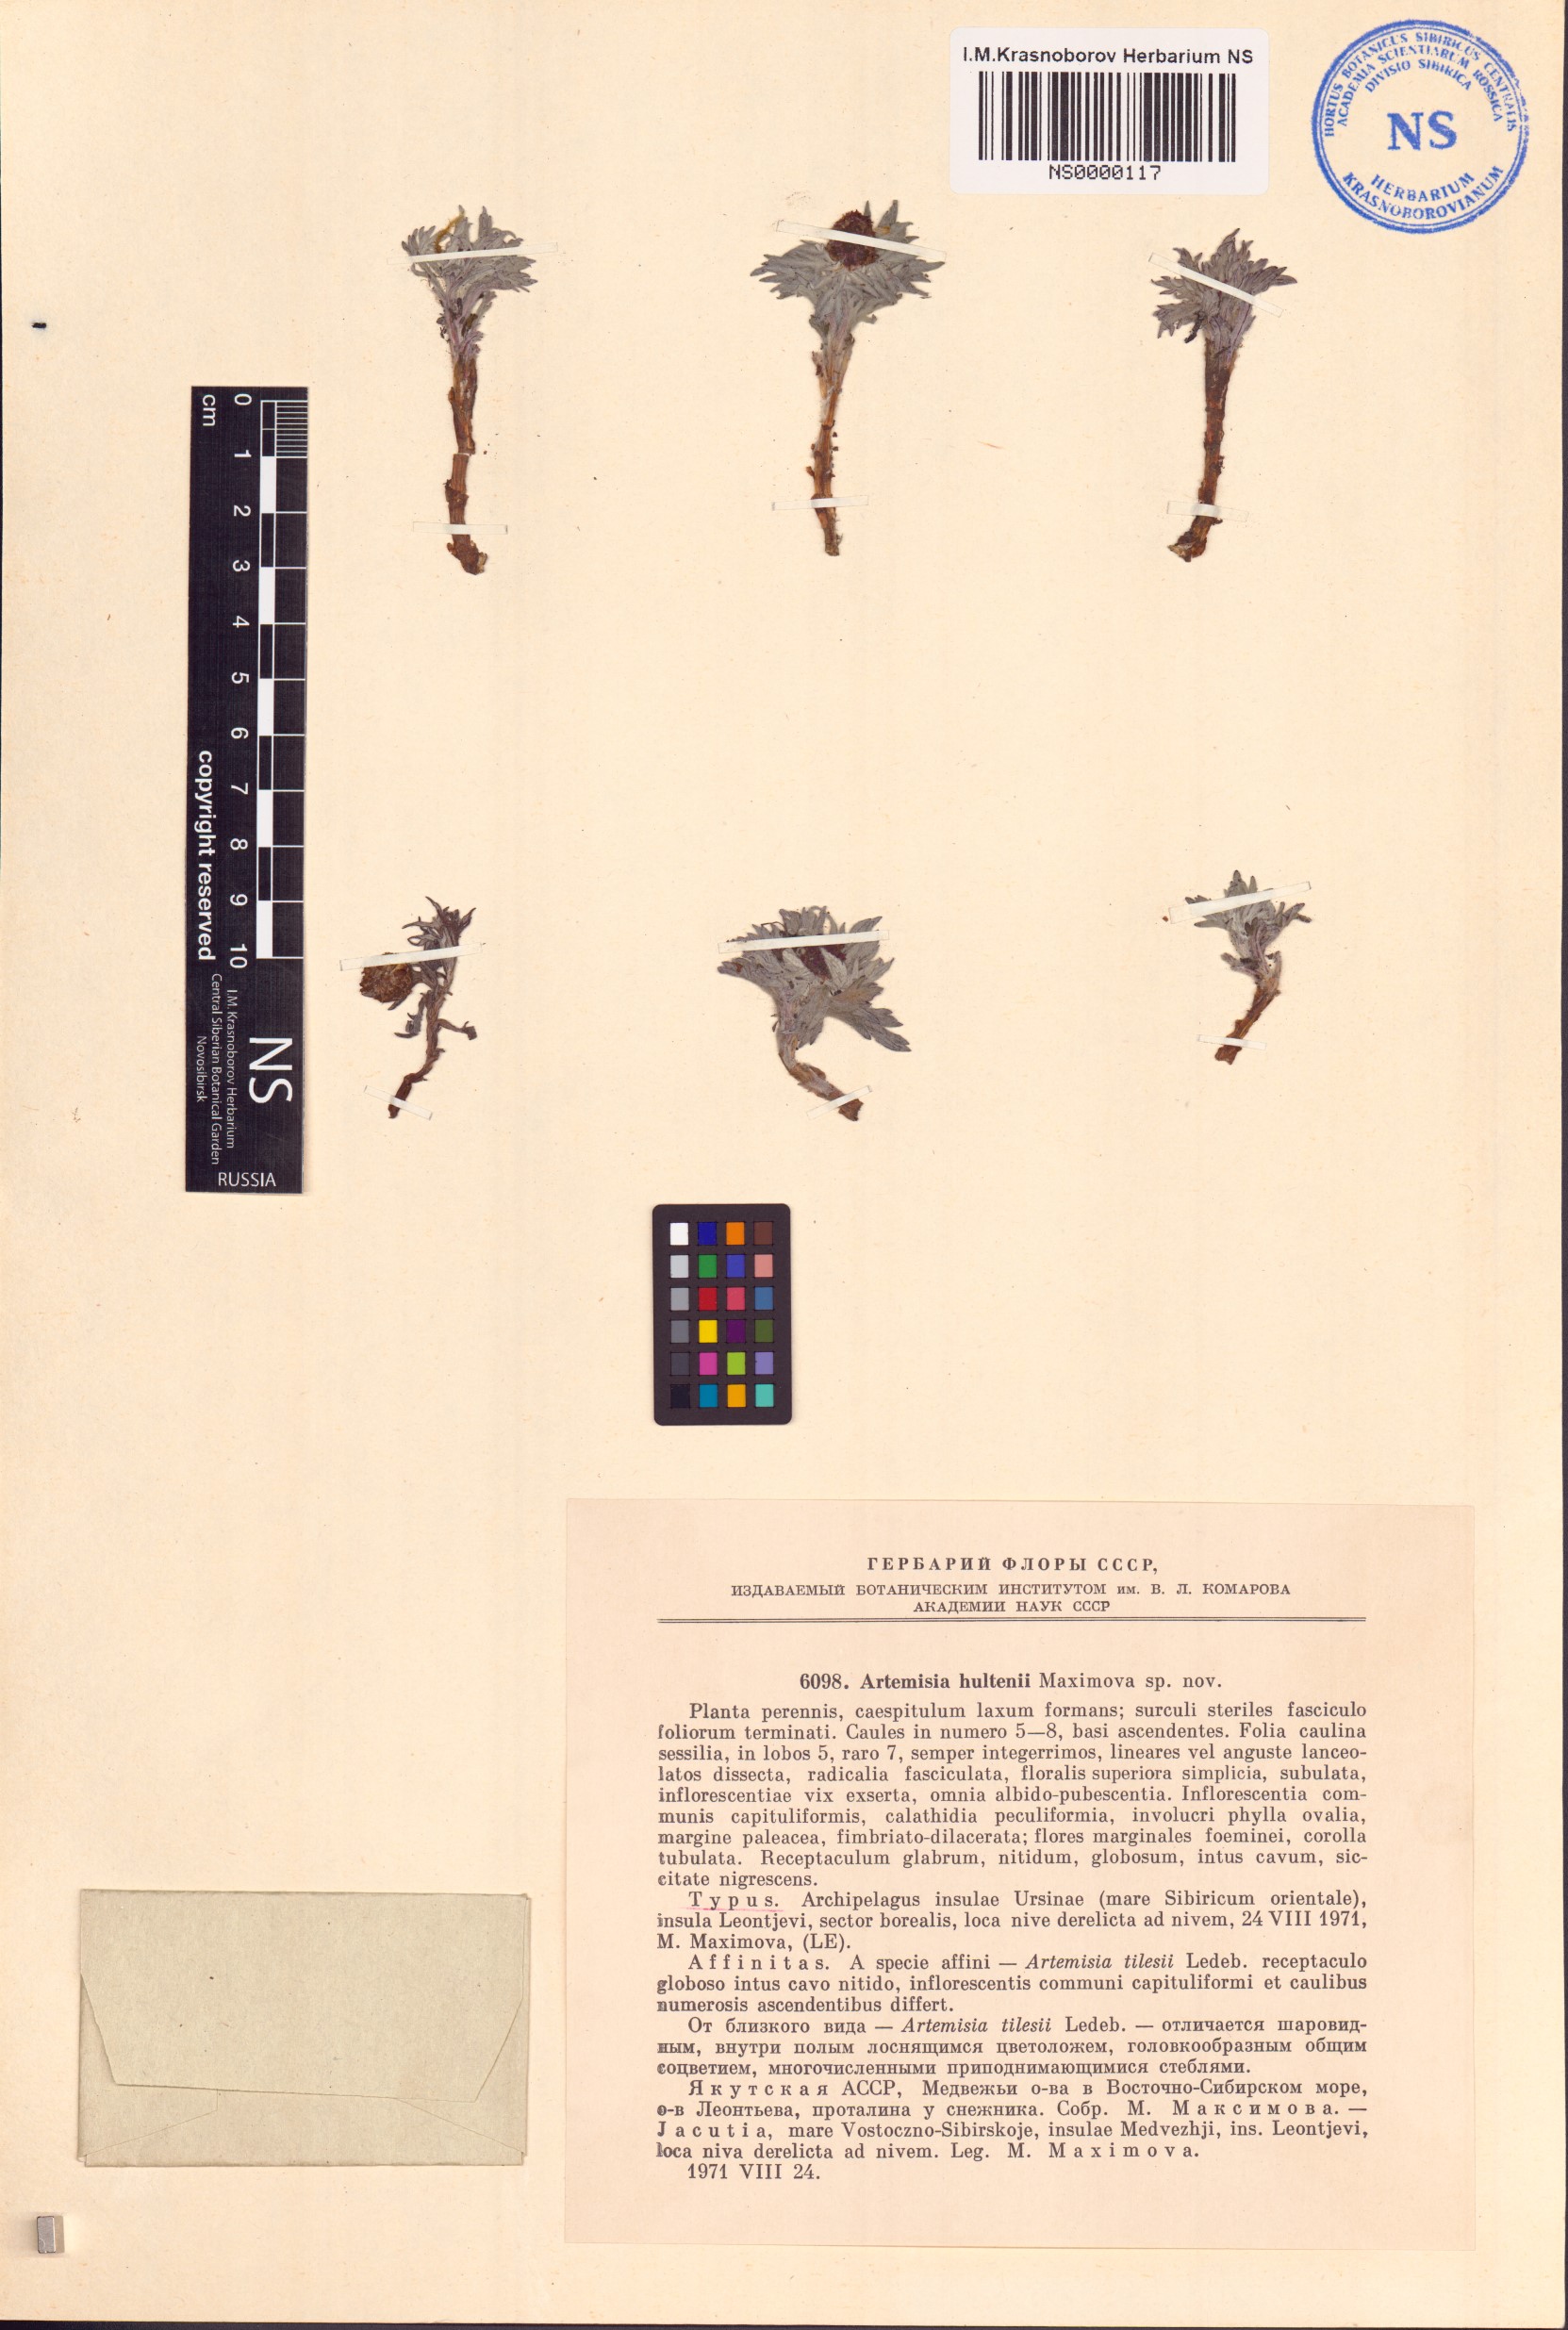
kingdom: Plantae
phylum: Tracheophyta
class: Magnoliopsida
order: Asterales
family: Asteraceae
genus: Artemisia
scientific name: Artemisia tilesii
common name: Aleutian mugwort
